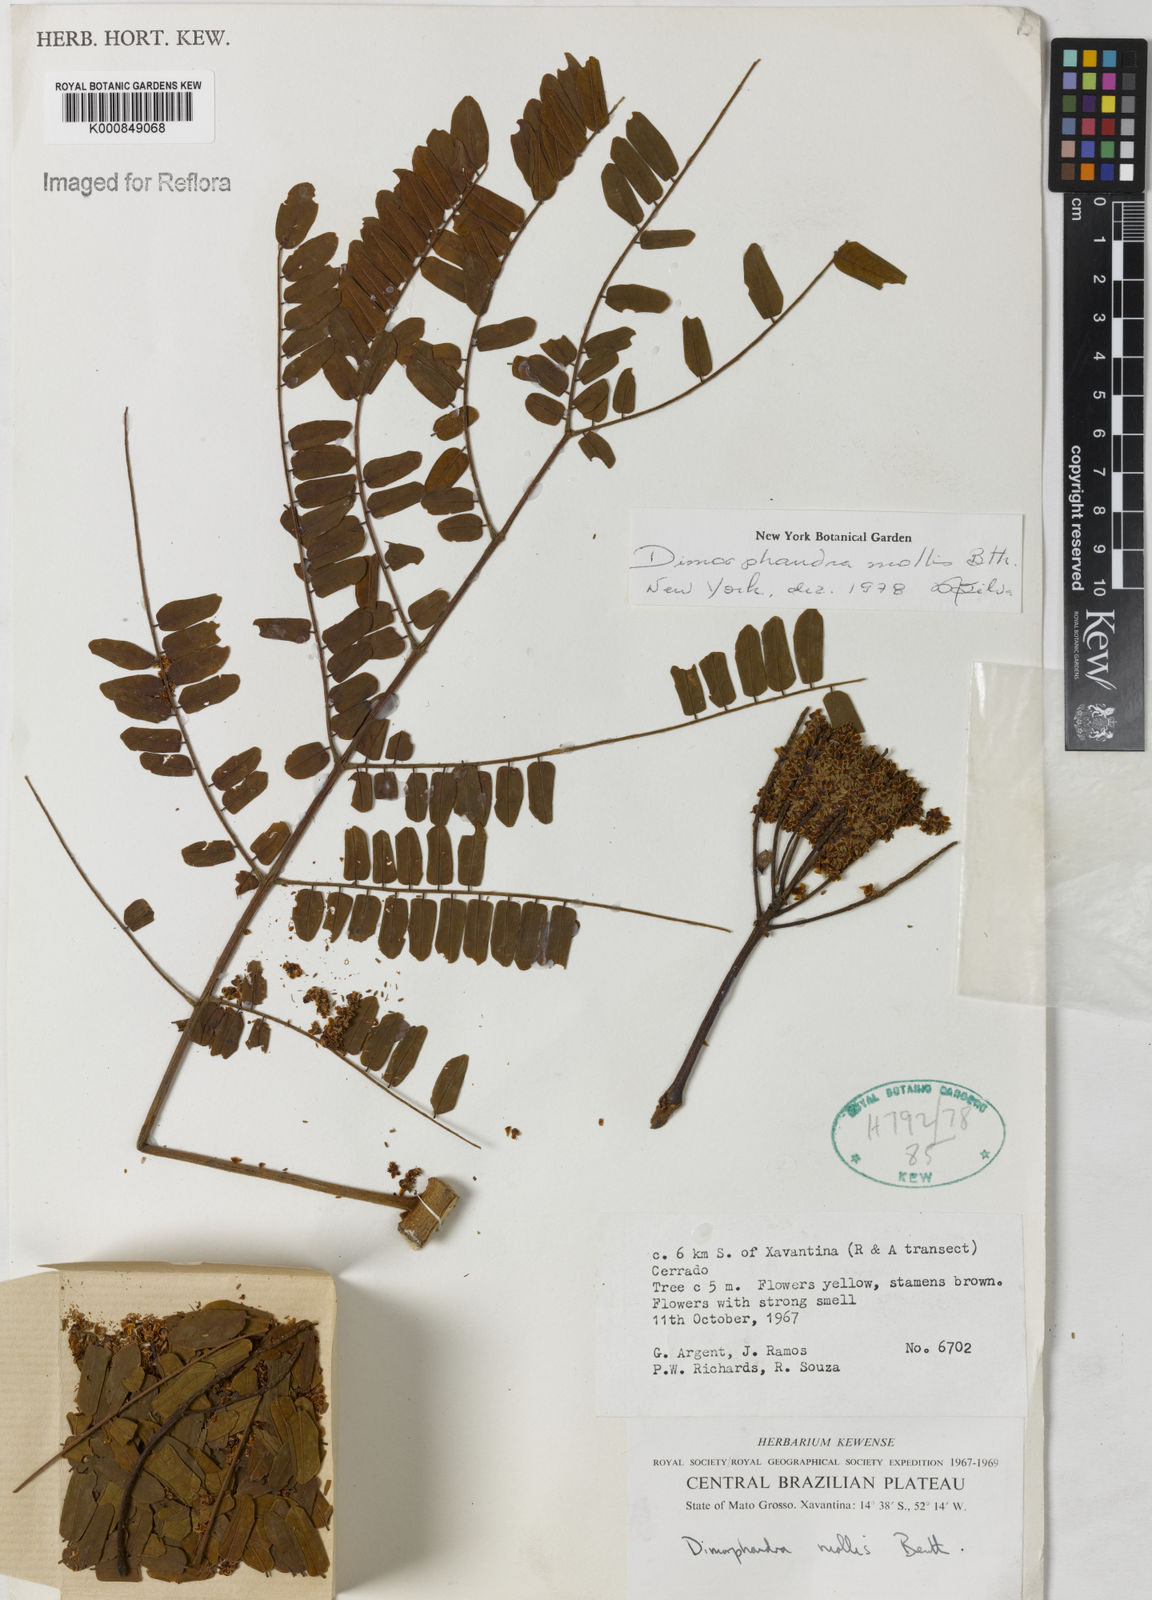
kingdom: Plantae
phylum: Tracheophyta
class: Magnoliopsida
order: Fabales
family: Fabaceae
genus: Dimorphandra
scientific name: Dimorphandra mollis
